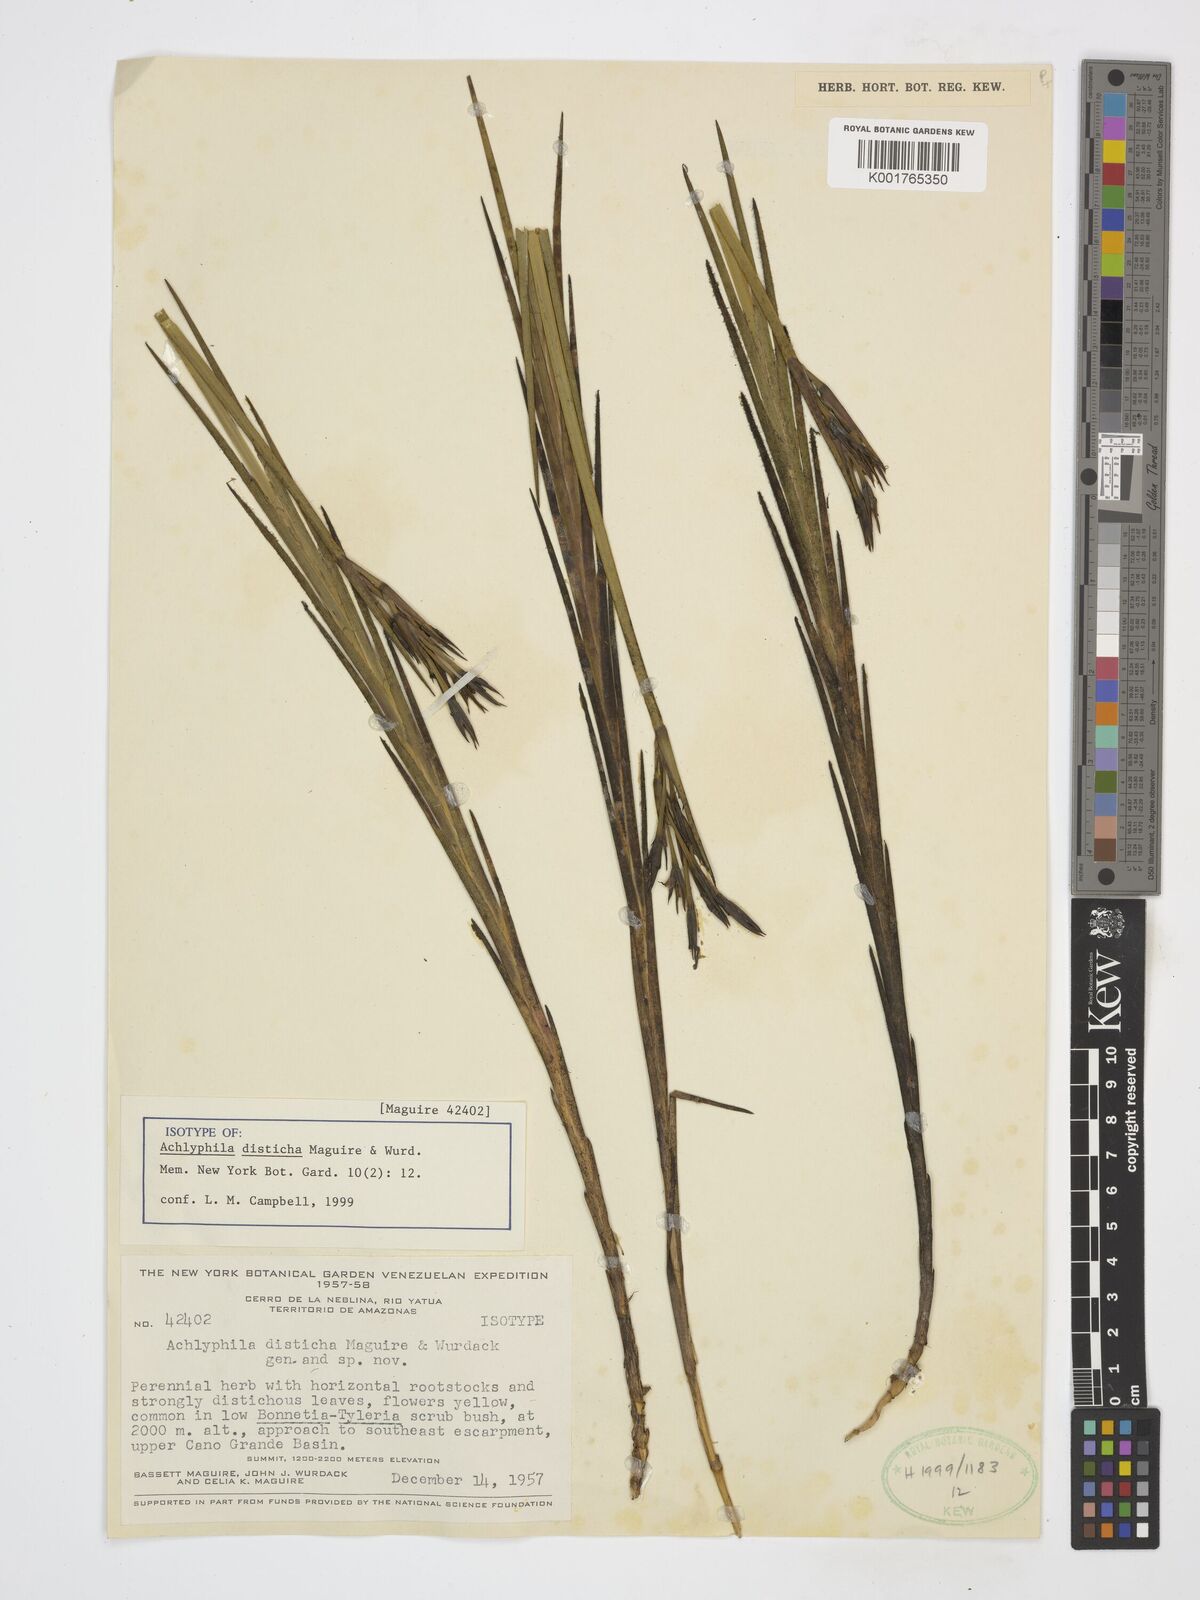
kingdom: Plantae
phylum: Tracheophyta
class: Liliopsida
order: Poales
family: Xyridaceae
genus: Achlyphila
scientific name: Achlyphila disticha
